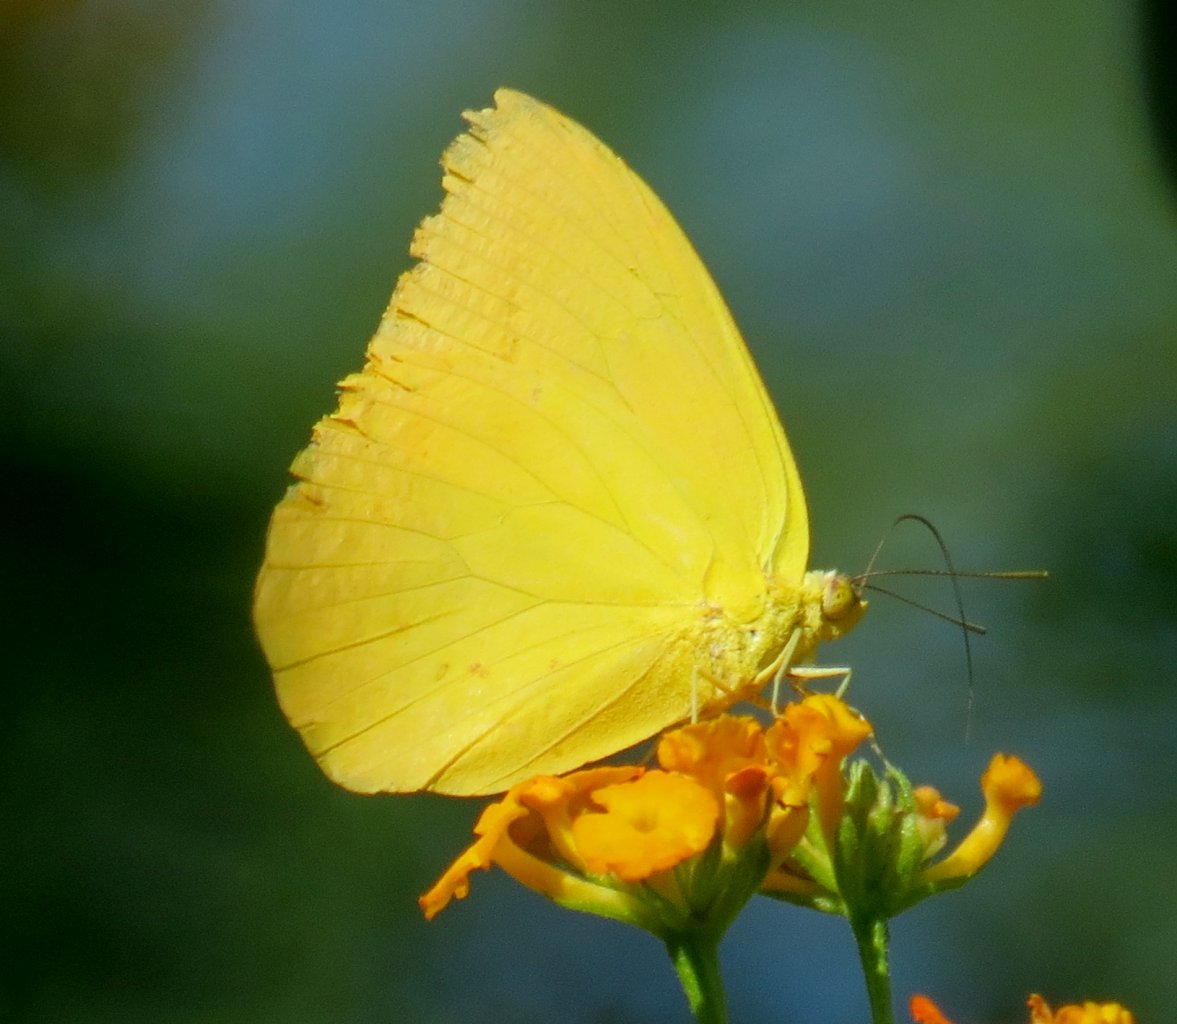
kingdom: Animalia
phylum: Arthropoda
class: Insecta
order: Lepidoptera
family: Pieridae
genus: Phoebis
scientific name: Phoebis agarithe
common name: Large Orange Sulphur
